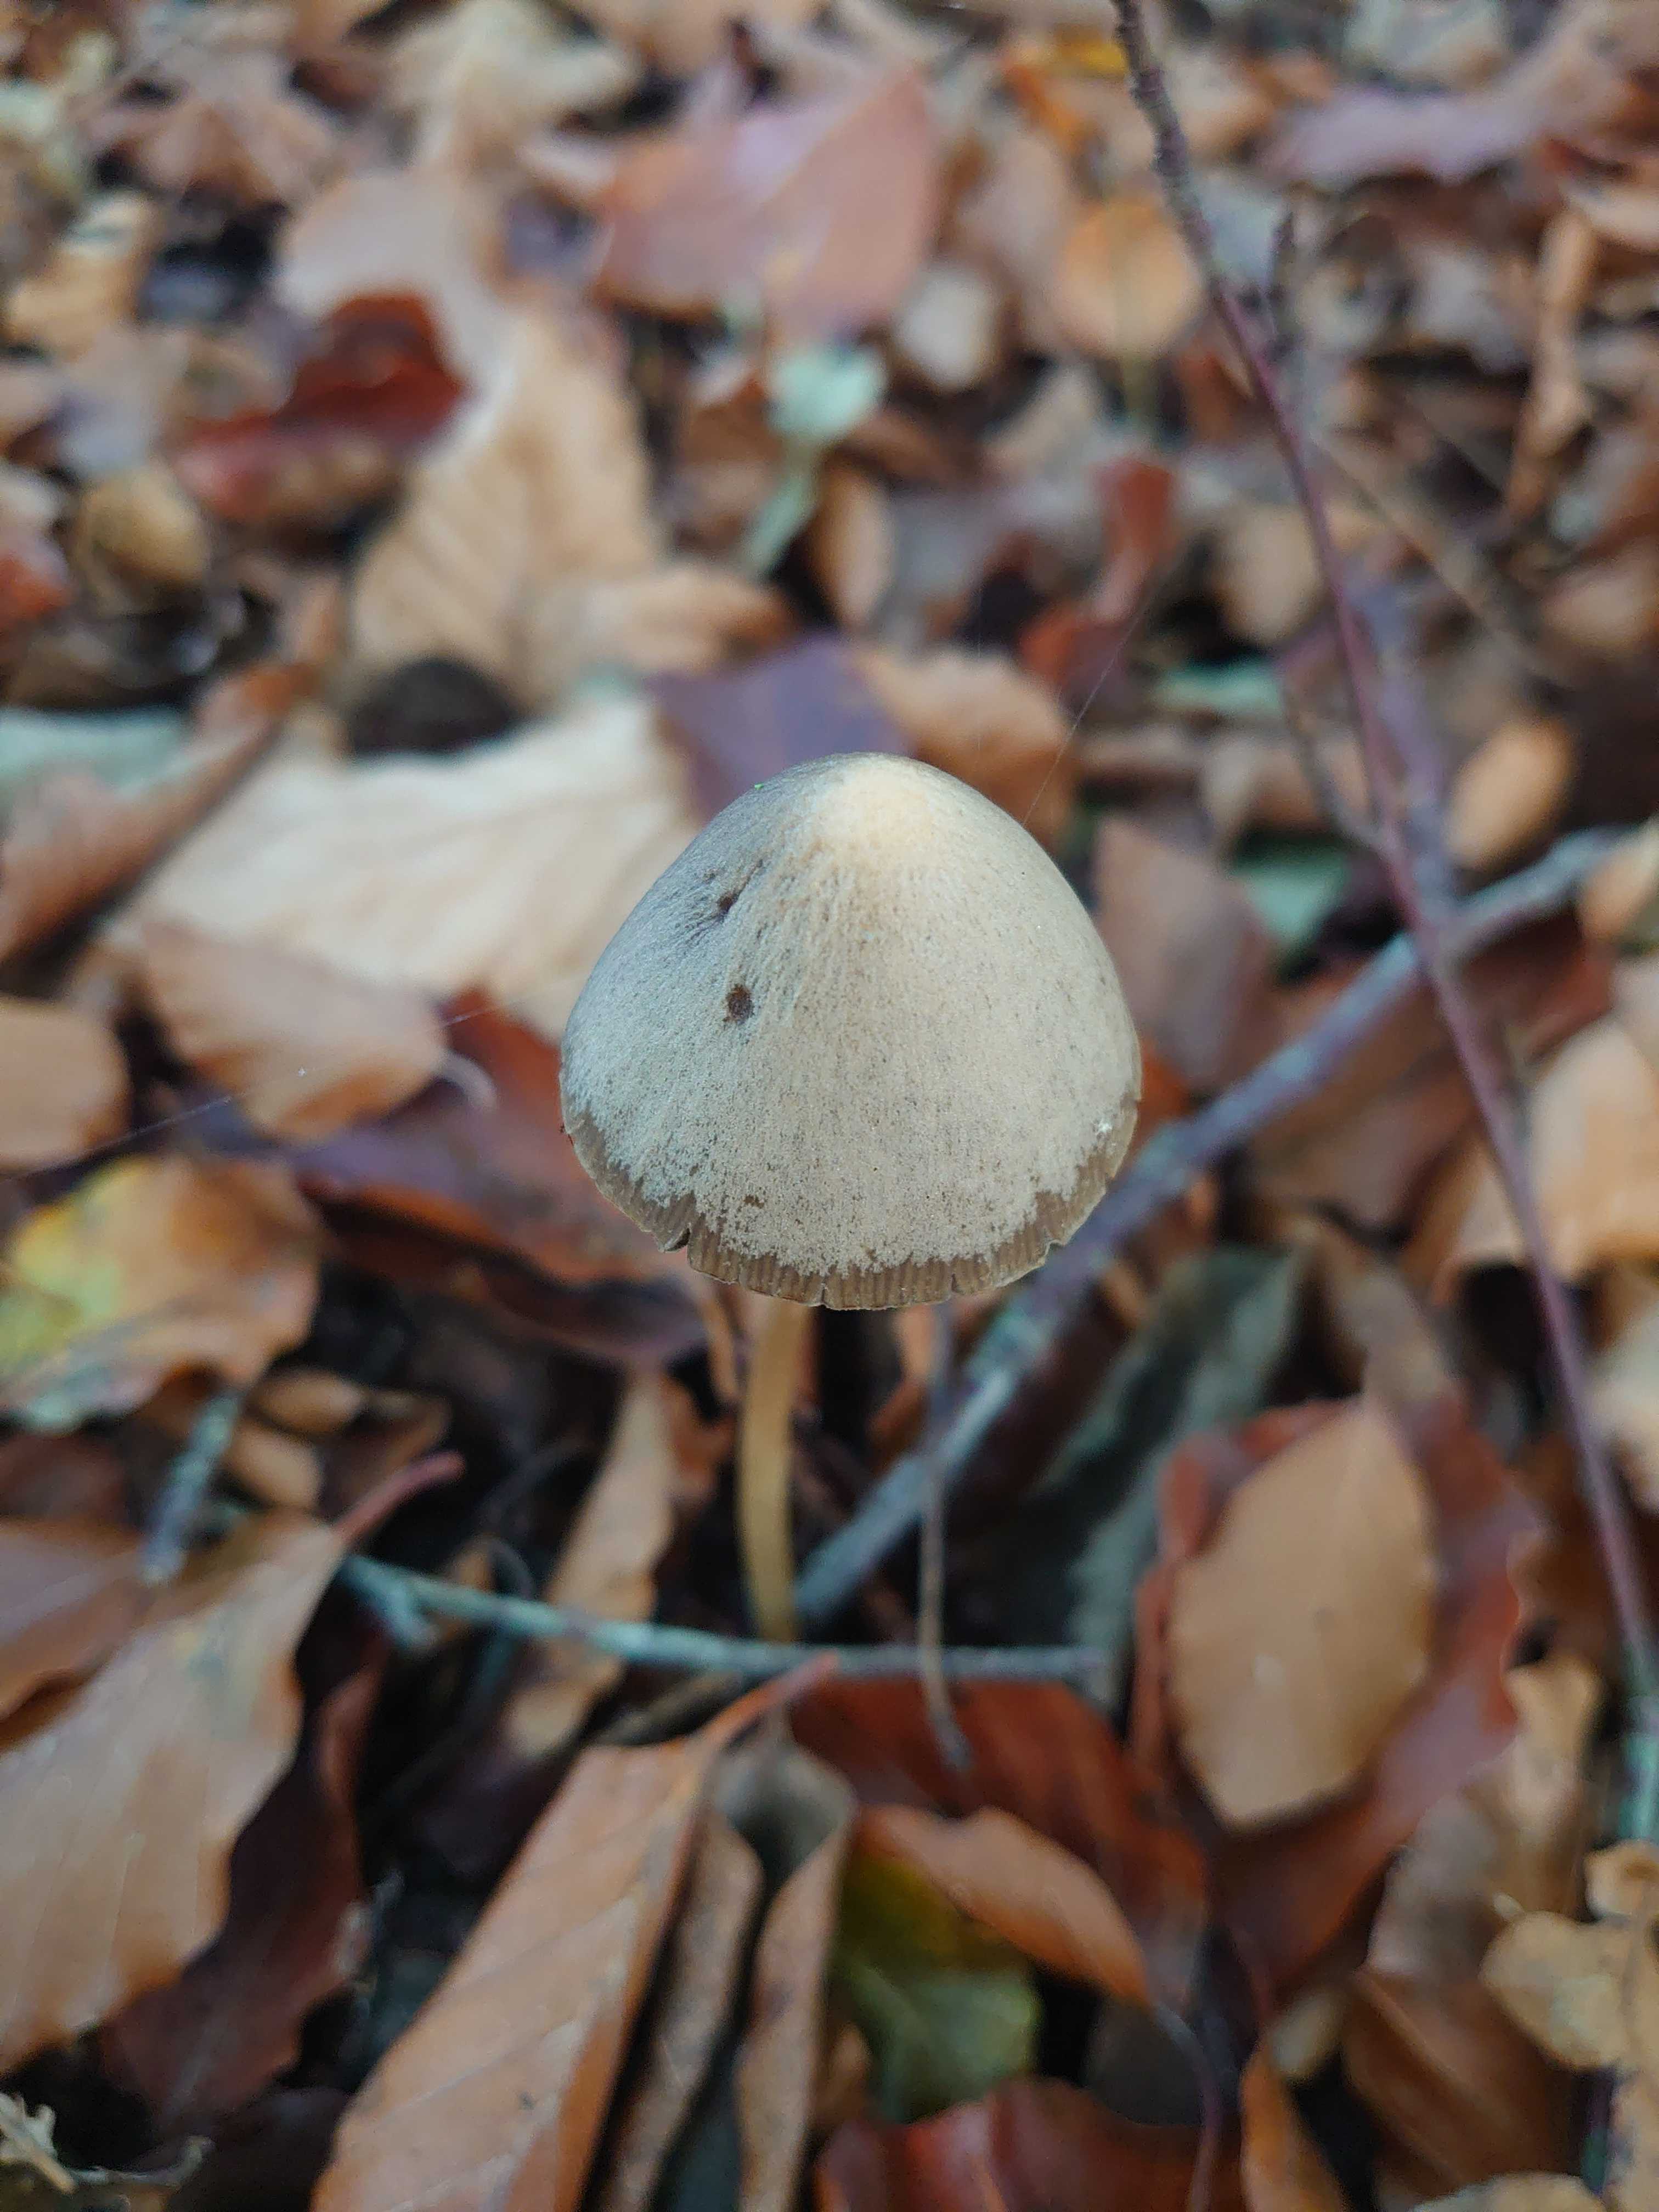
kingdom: Fungi
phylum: Basidiomycota
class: Agaricomycetes
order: Agaricales
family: Psathyrellaceae
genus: Psathyrella
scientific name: Psathyrella
